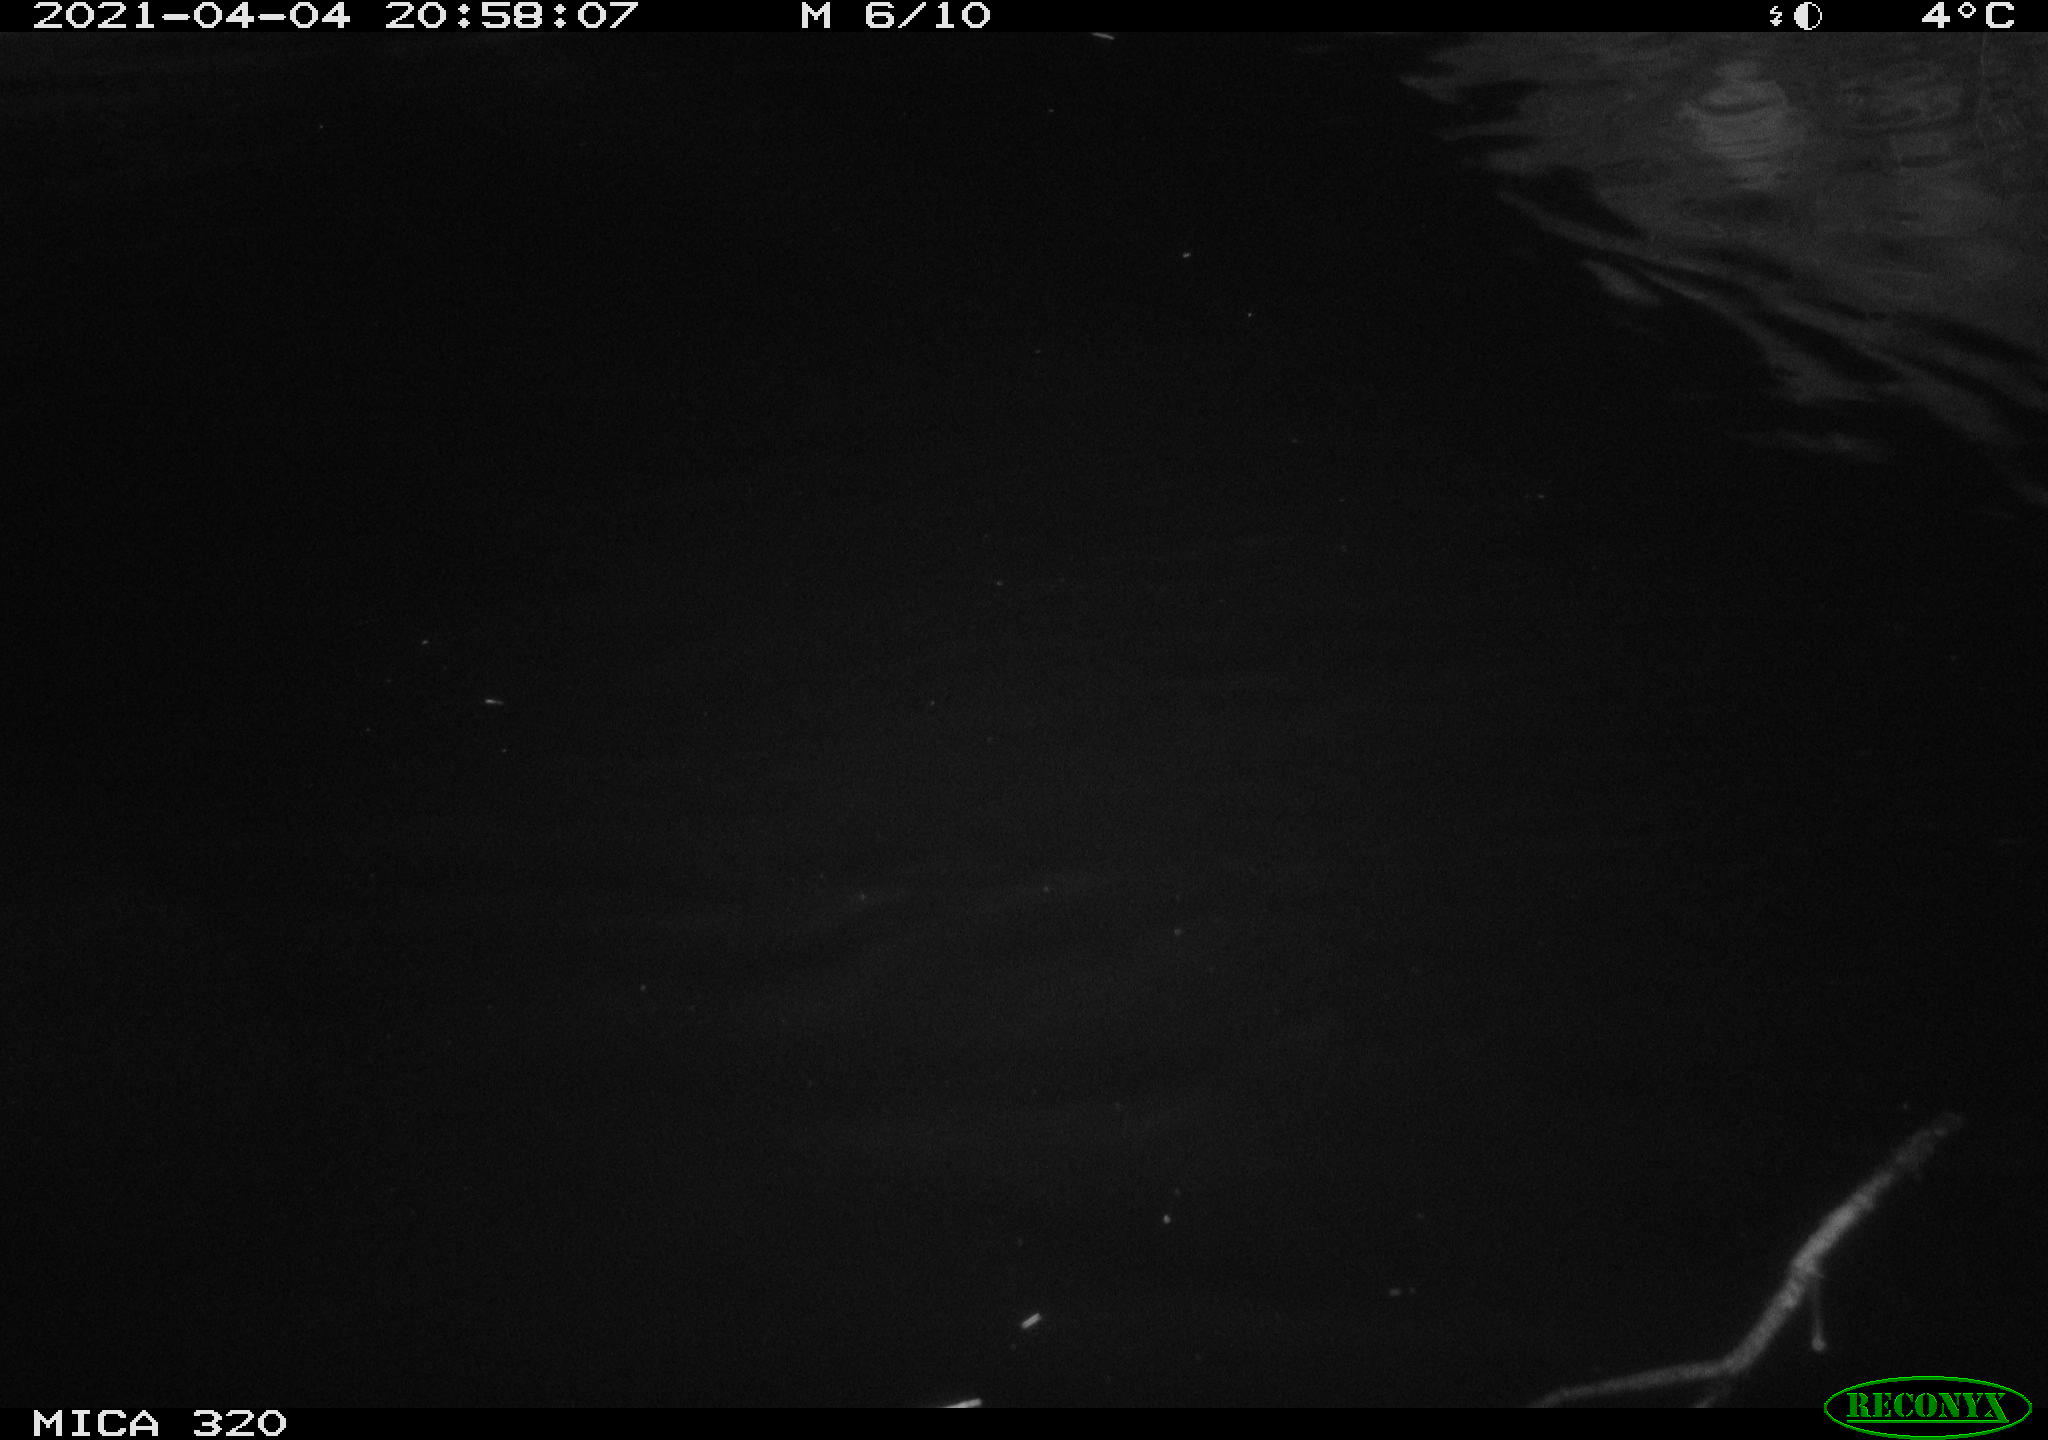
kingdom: Animalia
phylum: Chordata
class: Aves
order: Anseriformes
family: Anatidae
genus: Anas
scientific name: Anas platyrhynchos
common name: Mallard
